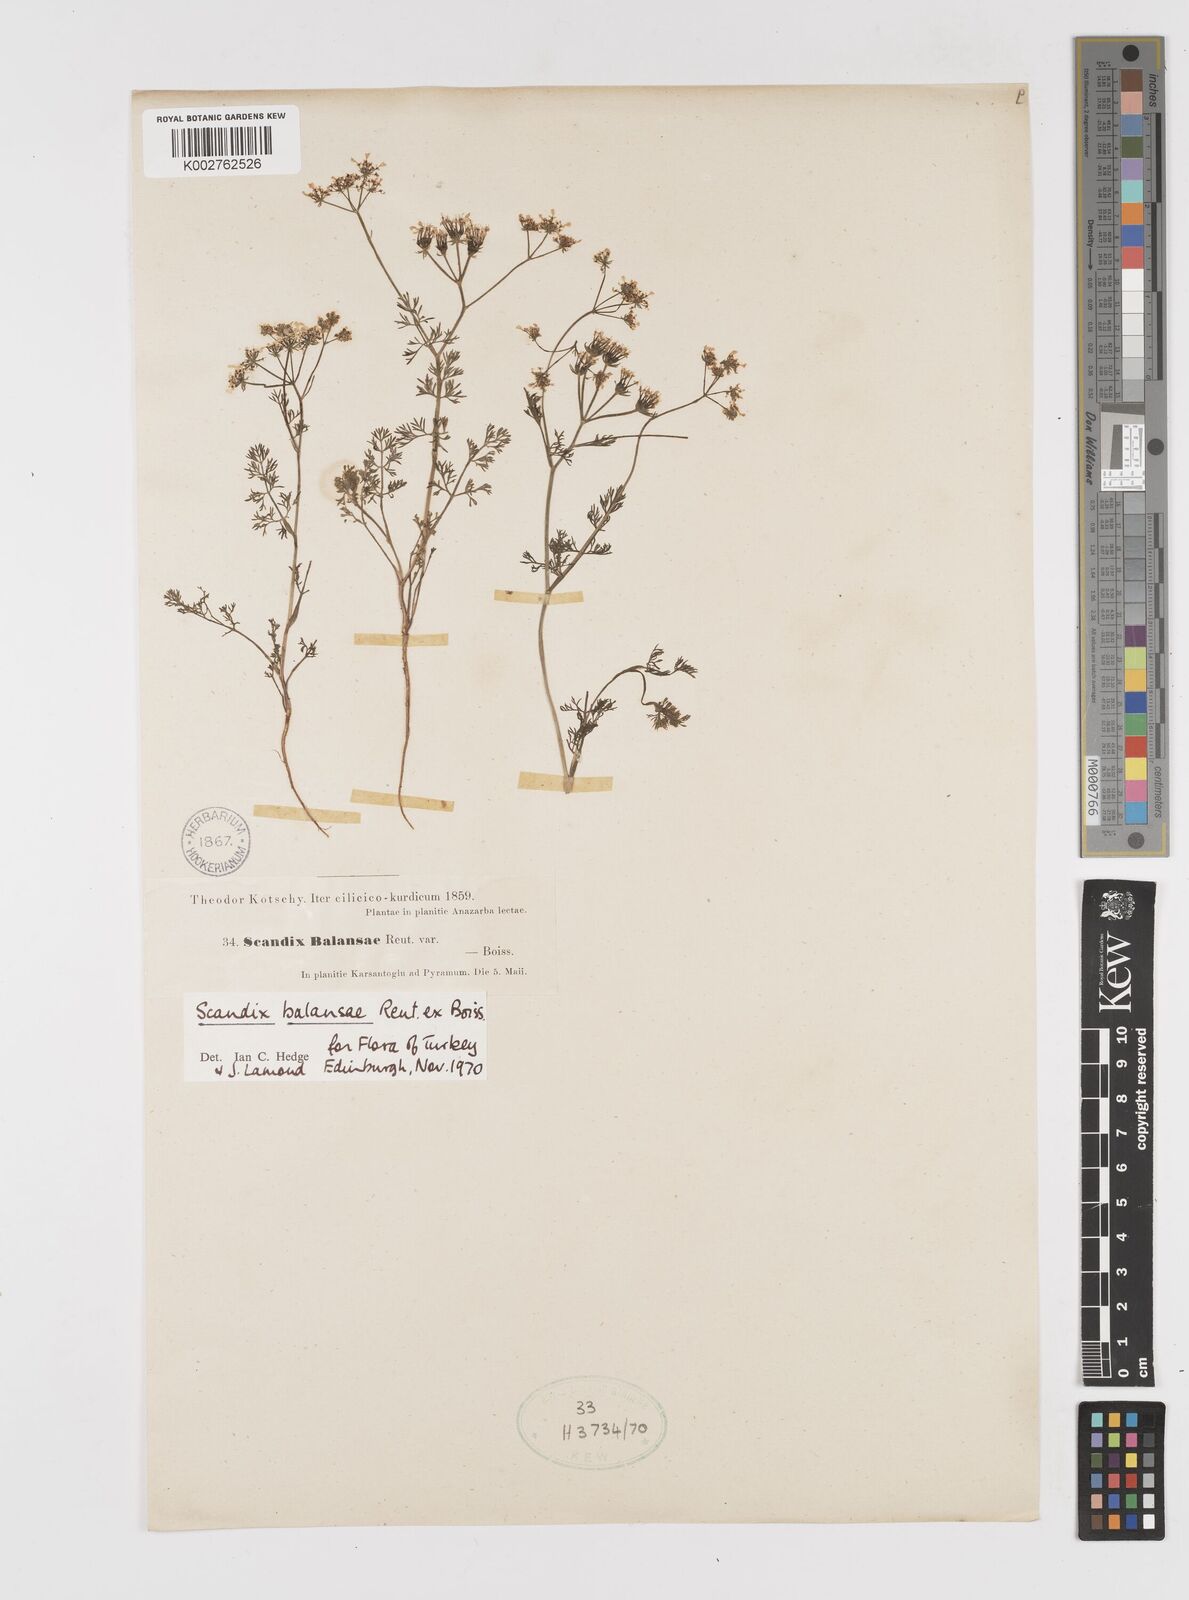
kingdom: Plantae
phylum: Tracheophyta
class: Magnoliopsida
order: Apiales
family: Apiaceae
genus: Scandix
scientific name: Scandix balansae
